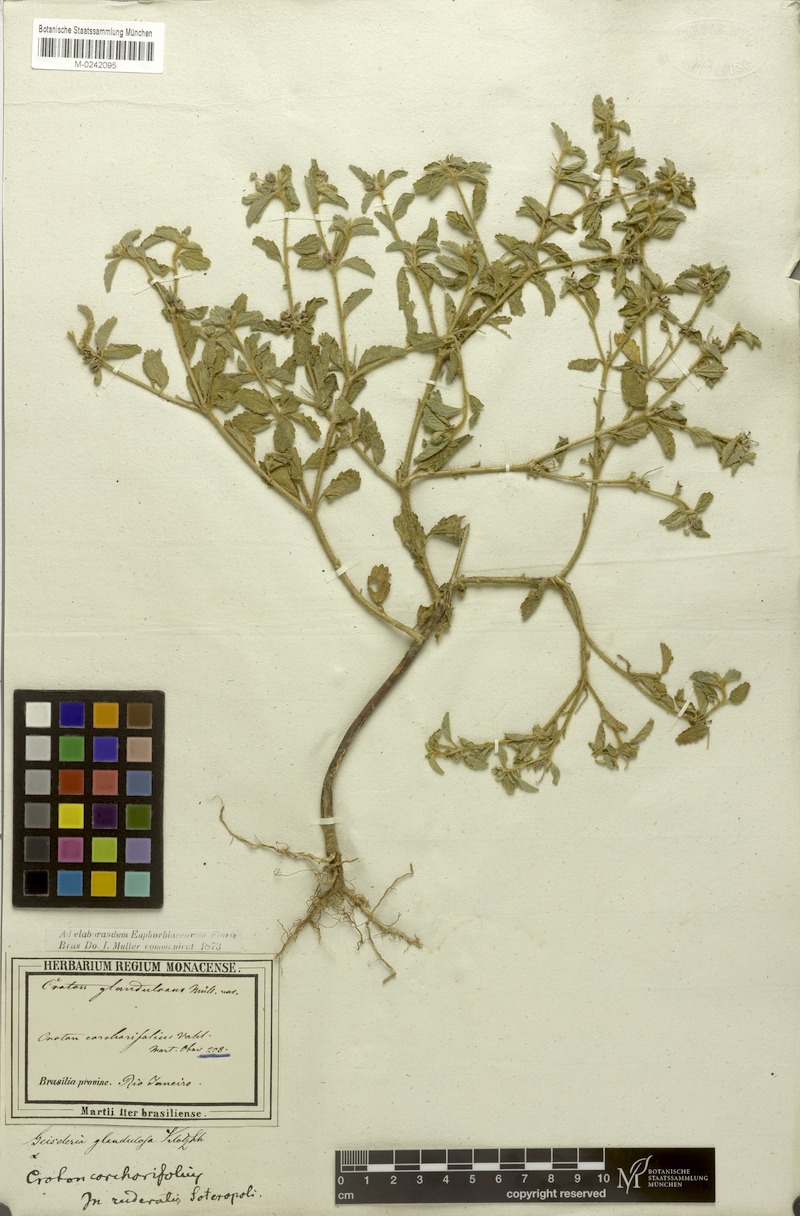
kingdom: Plantae
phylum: Tracheophyta
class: Magnoliopsida
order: Malpighiales
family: Euphorbiaceae
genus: Croton
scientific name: Croton glandulosus
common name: Tropic croton
